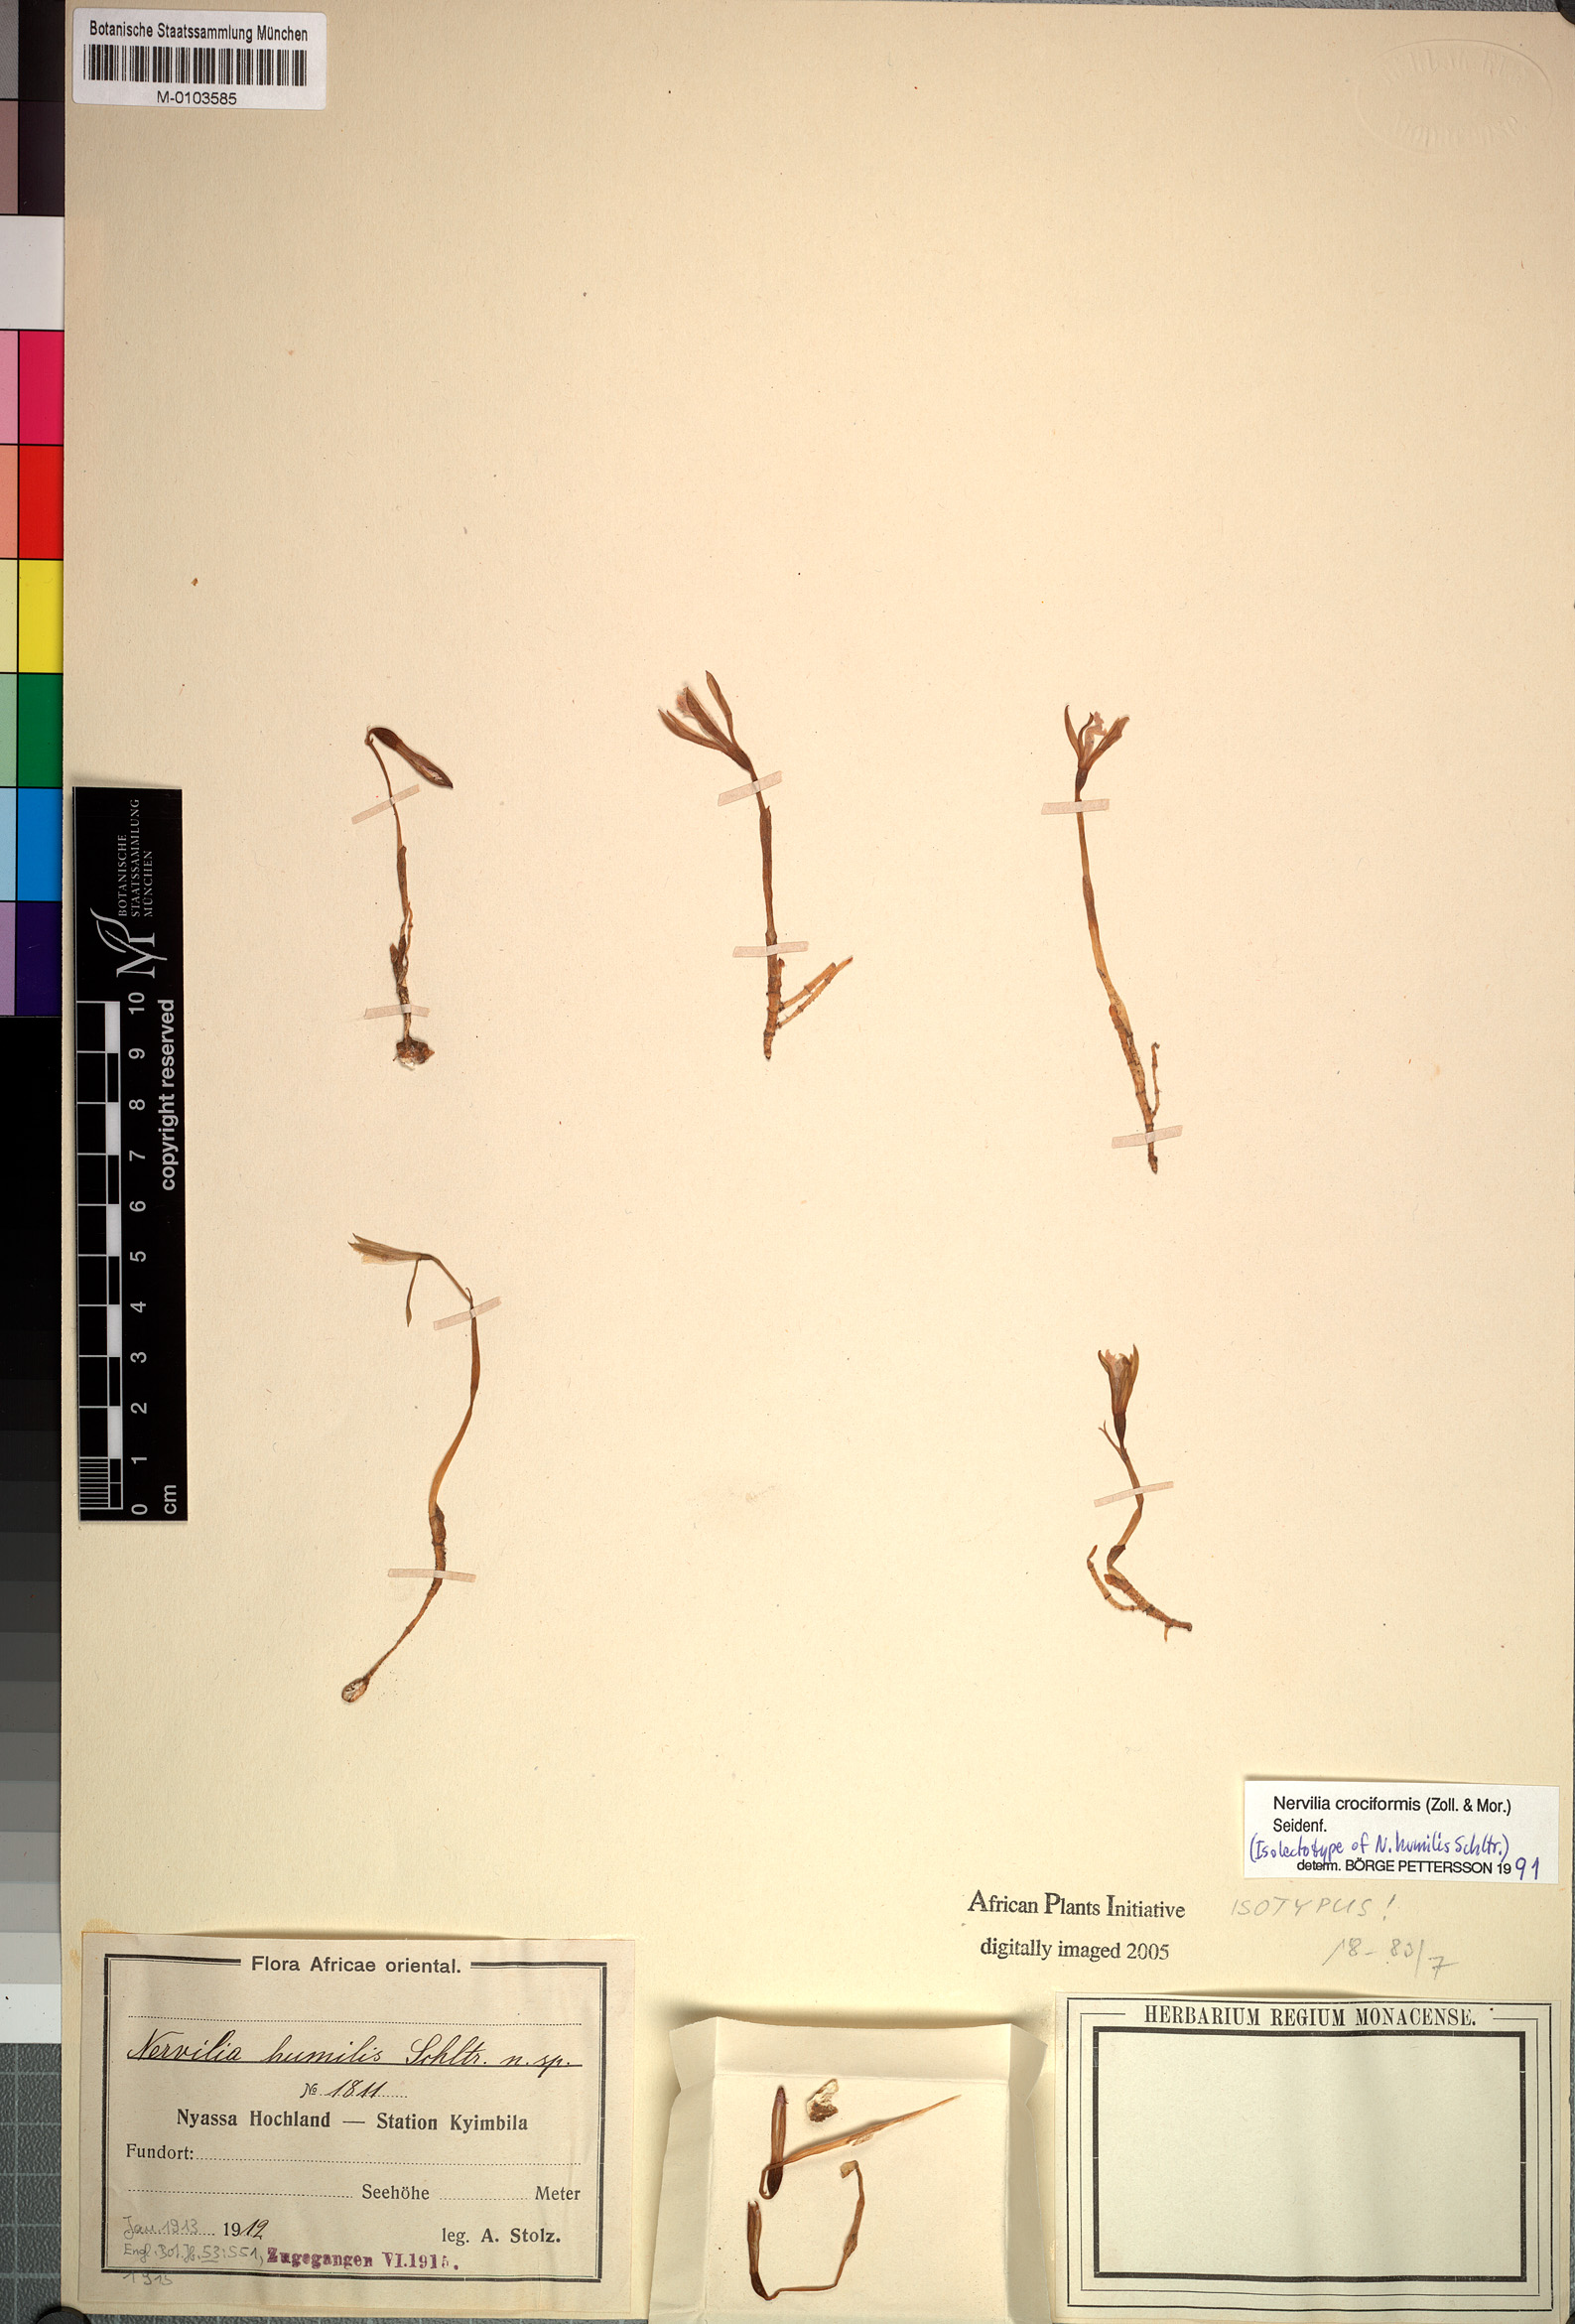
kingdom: Plantae
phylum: Tracheophyta
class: Liliopsida
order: Asparagales
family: Orchidaceae
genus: Nervilia
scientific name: Nervilia simplex
